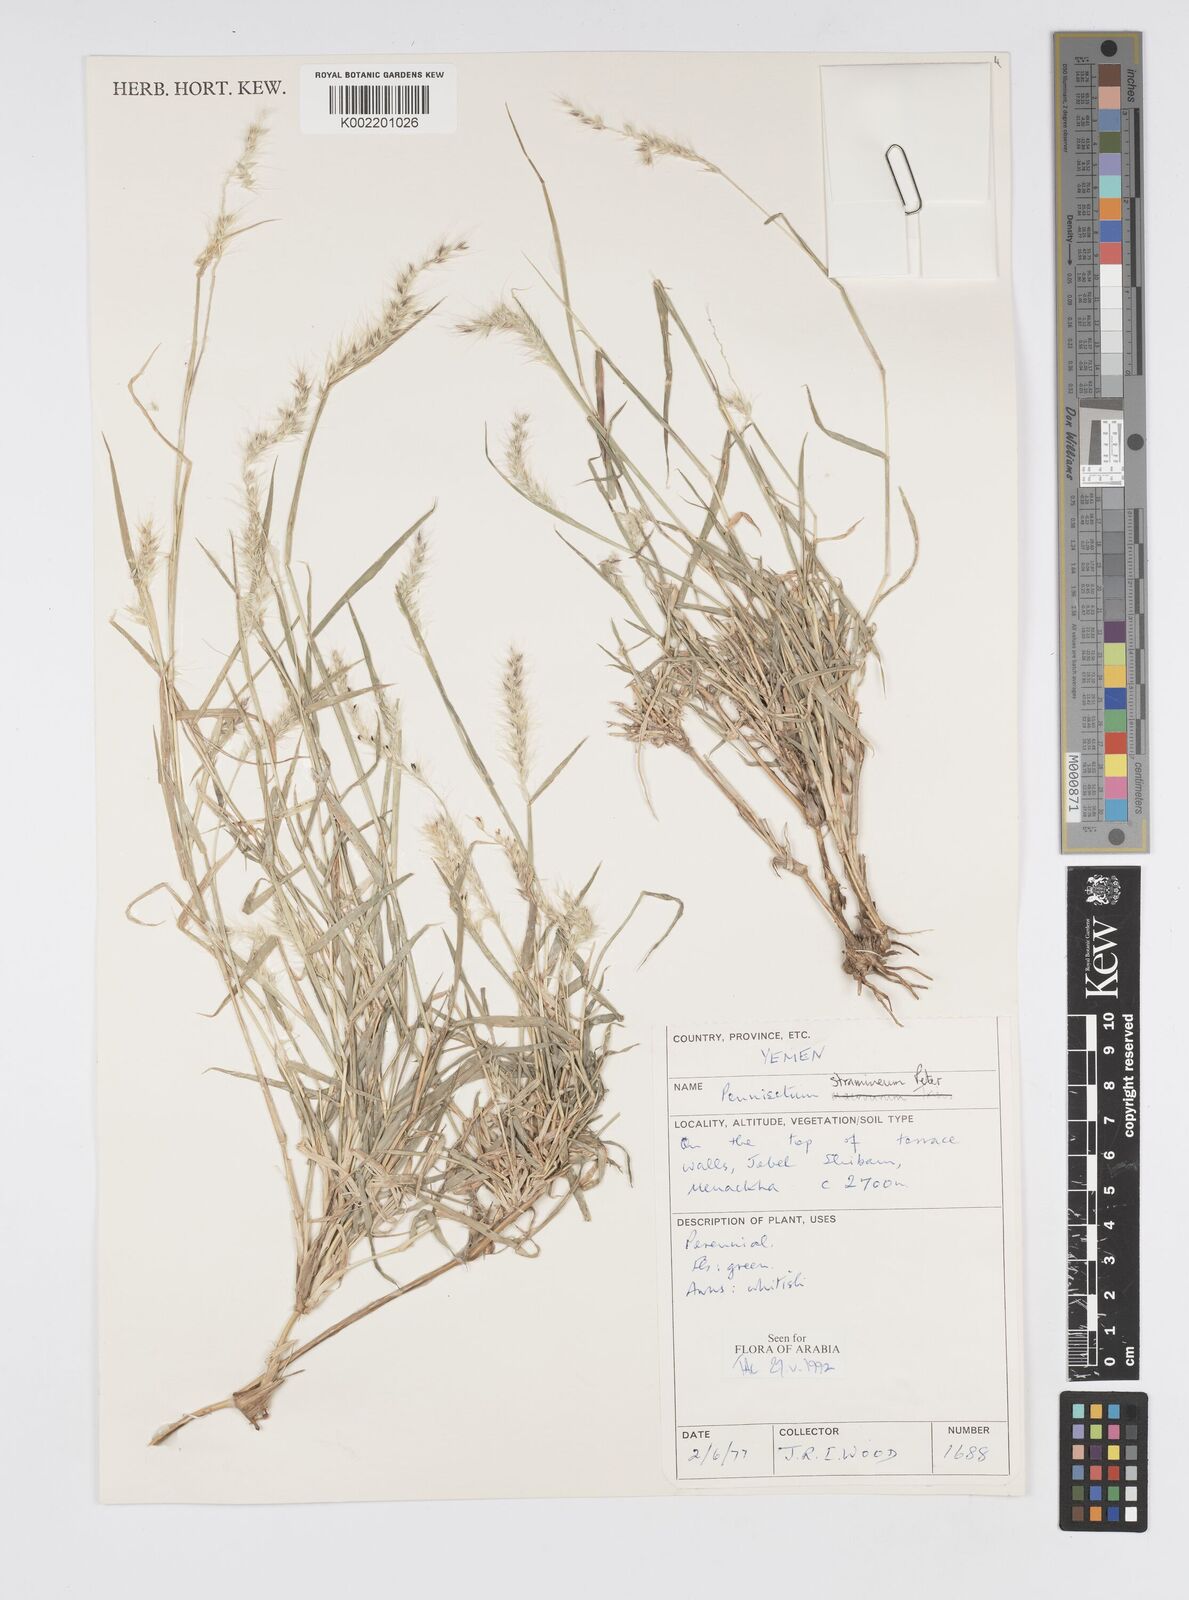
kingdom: Plantae
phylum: Tracheophyta
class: Liliopsida
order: Poales
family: Poaceae
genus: Cenchrus
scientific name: Cenchrus stramineus
